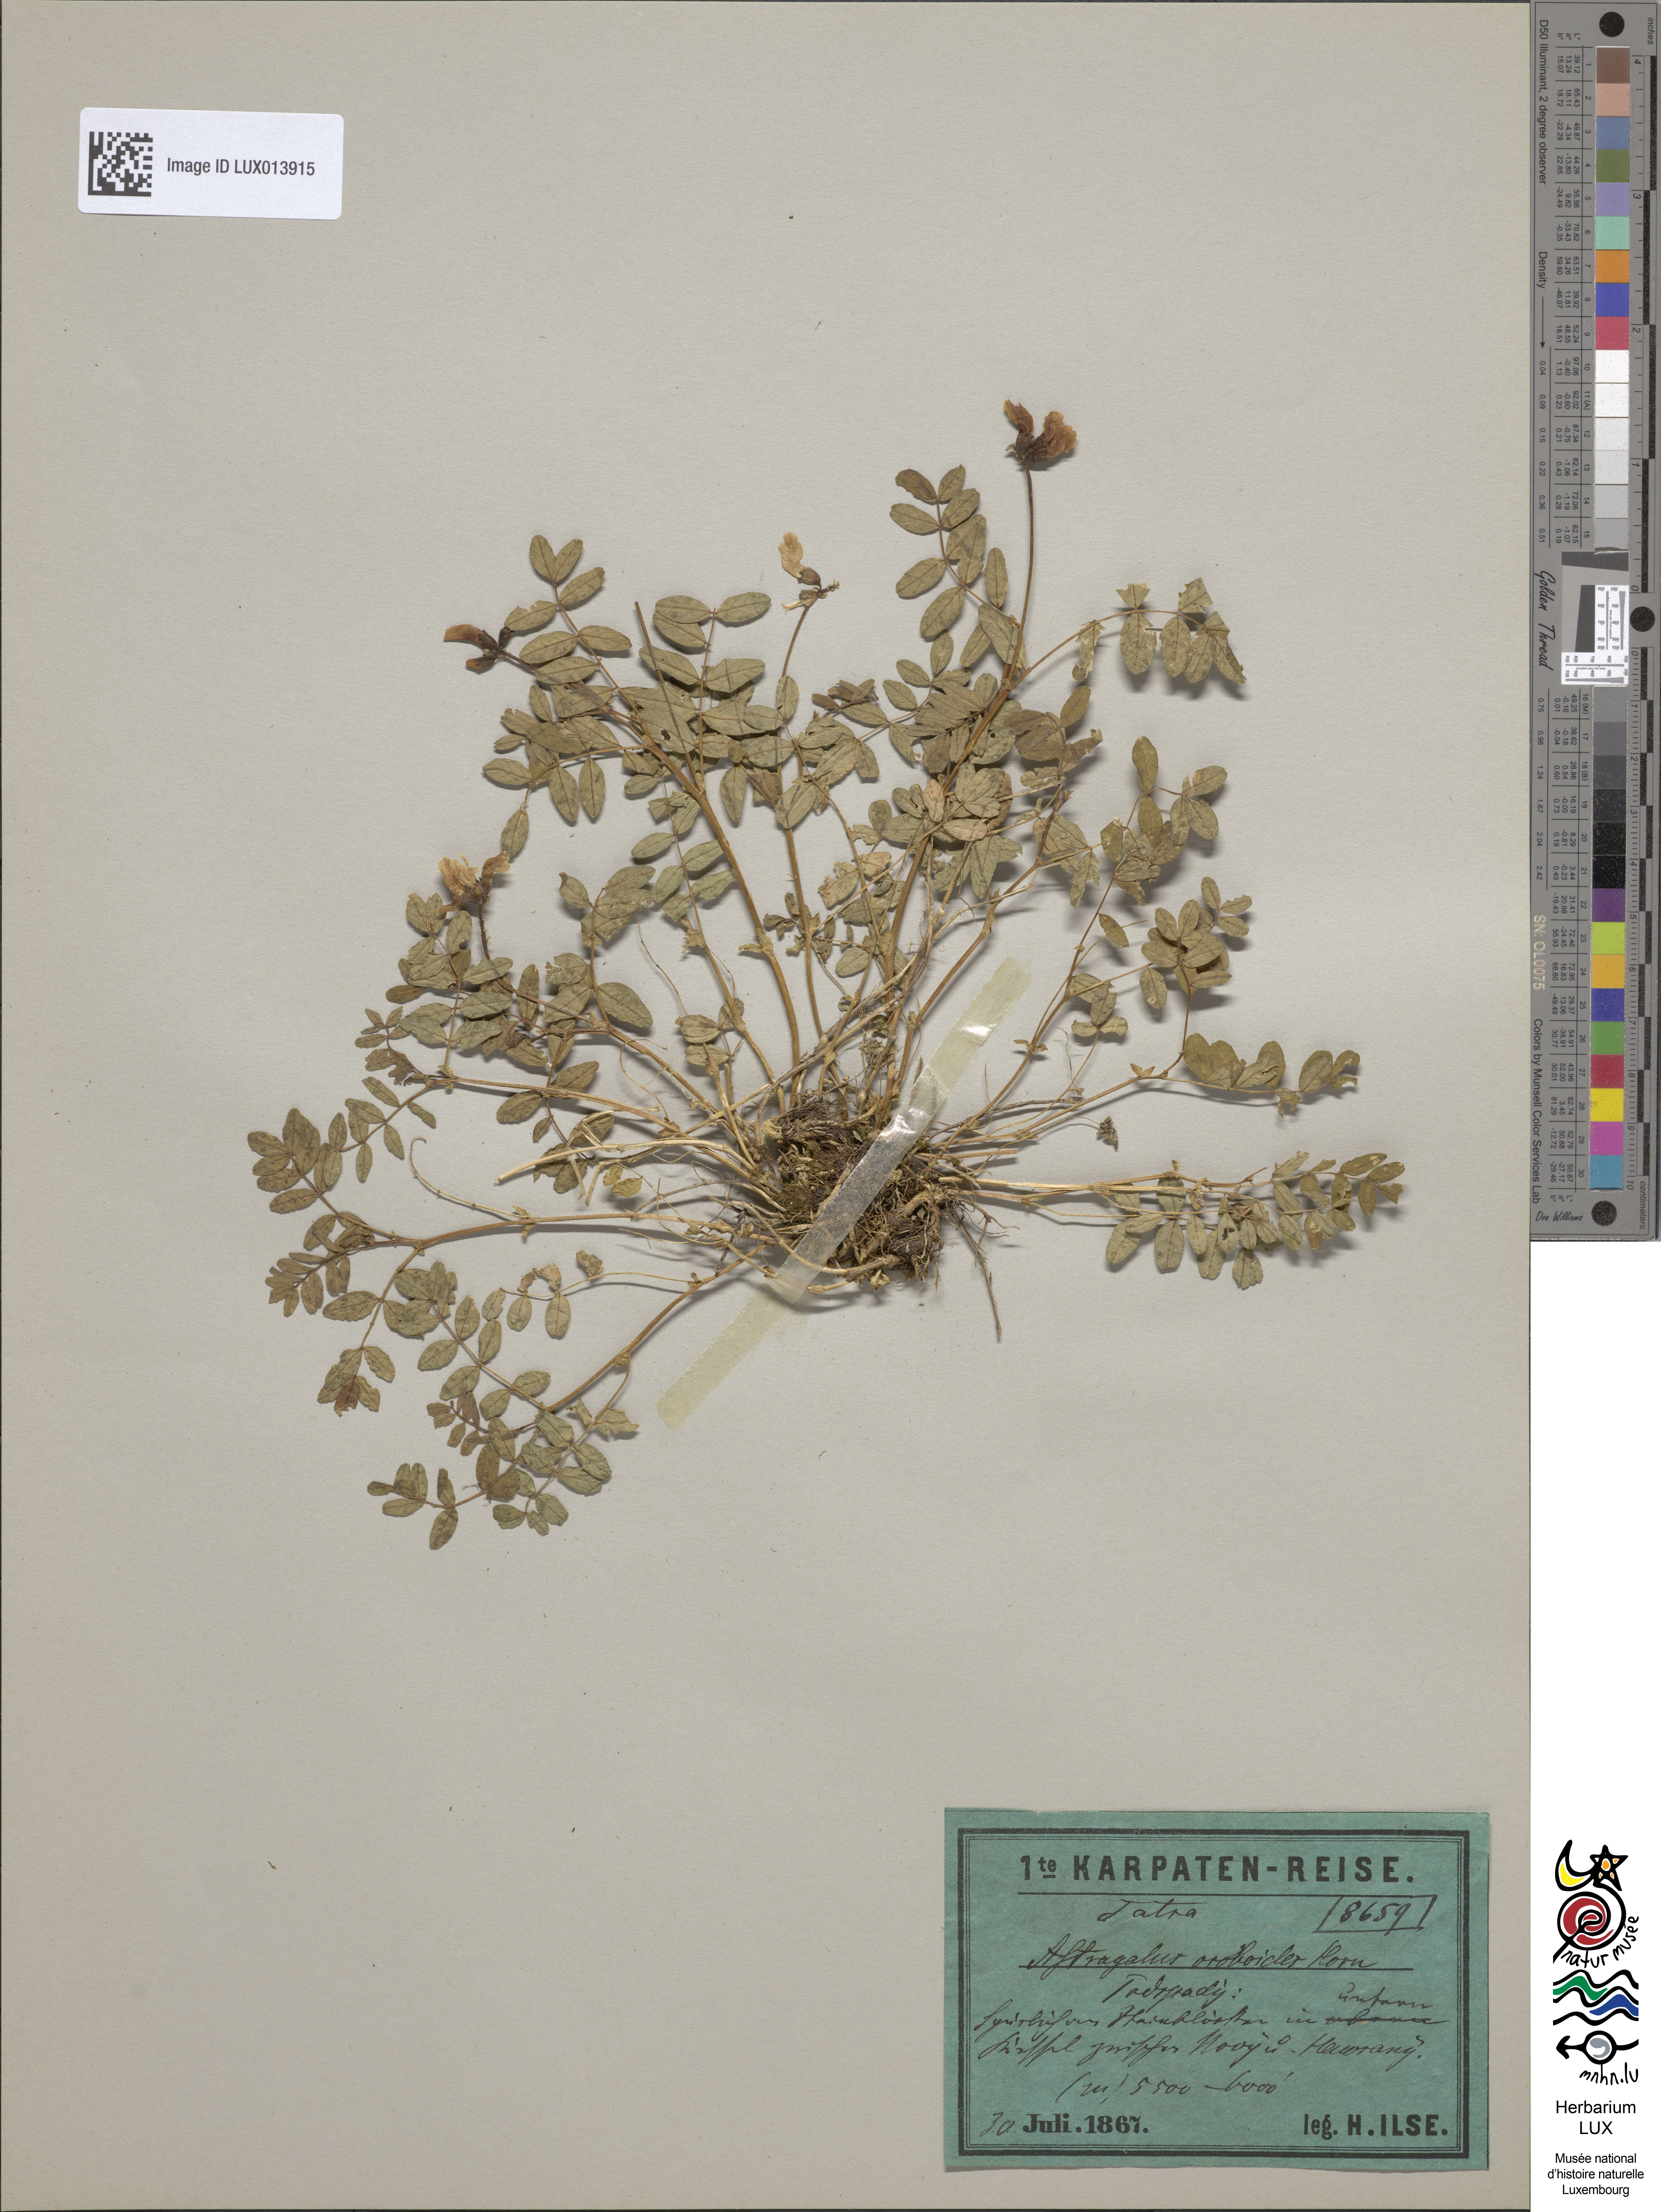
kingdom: Plantae
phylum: Tracheophyta
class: Magnoliopsida
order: Fabales
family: Fabaceae
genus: Astragalus
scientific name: Astragalus norvegicus
